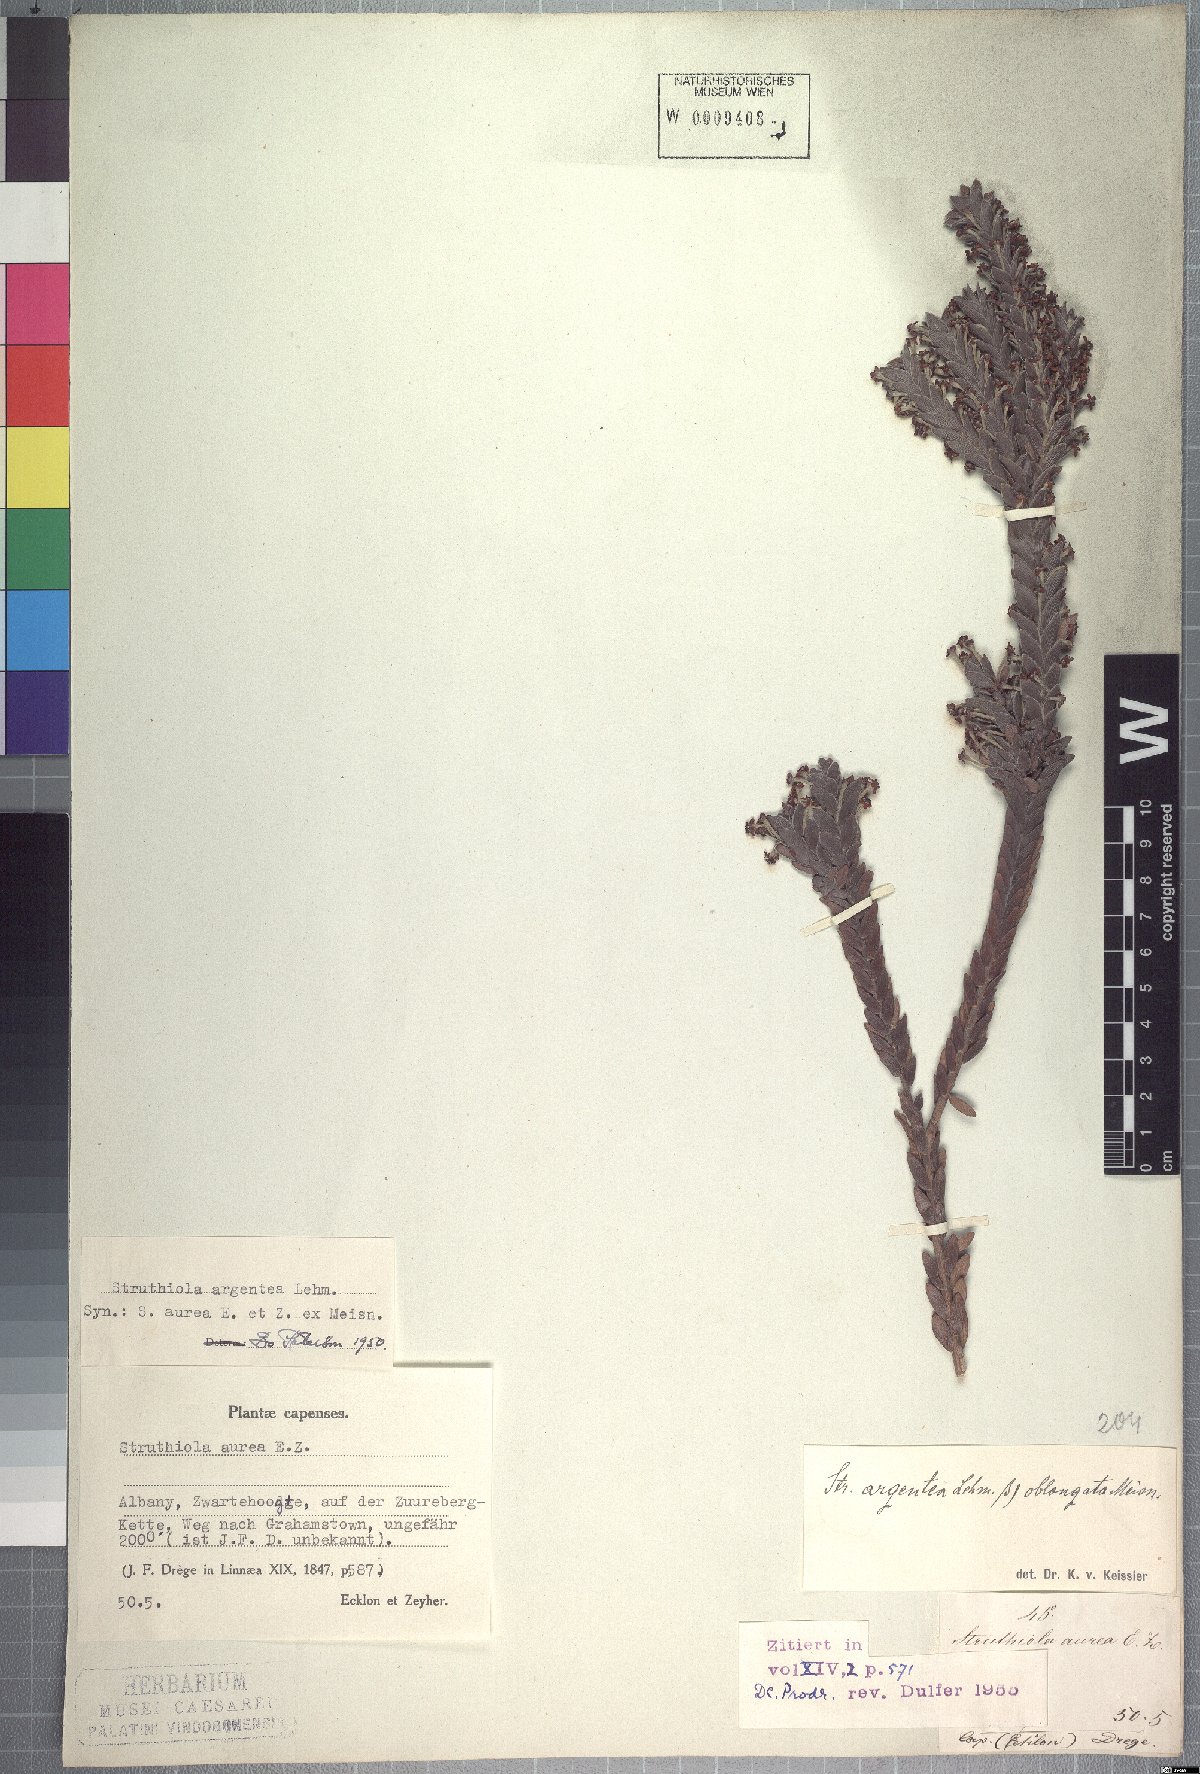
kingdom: Plantae
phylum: Tracheophyta
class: Magnoliopsida
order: Malvales
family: Thymelaeaceae
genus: Struthiola
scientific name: Struthiola argentea
